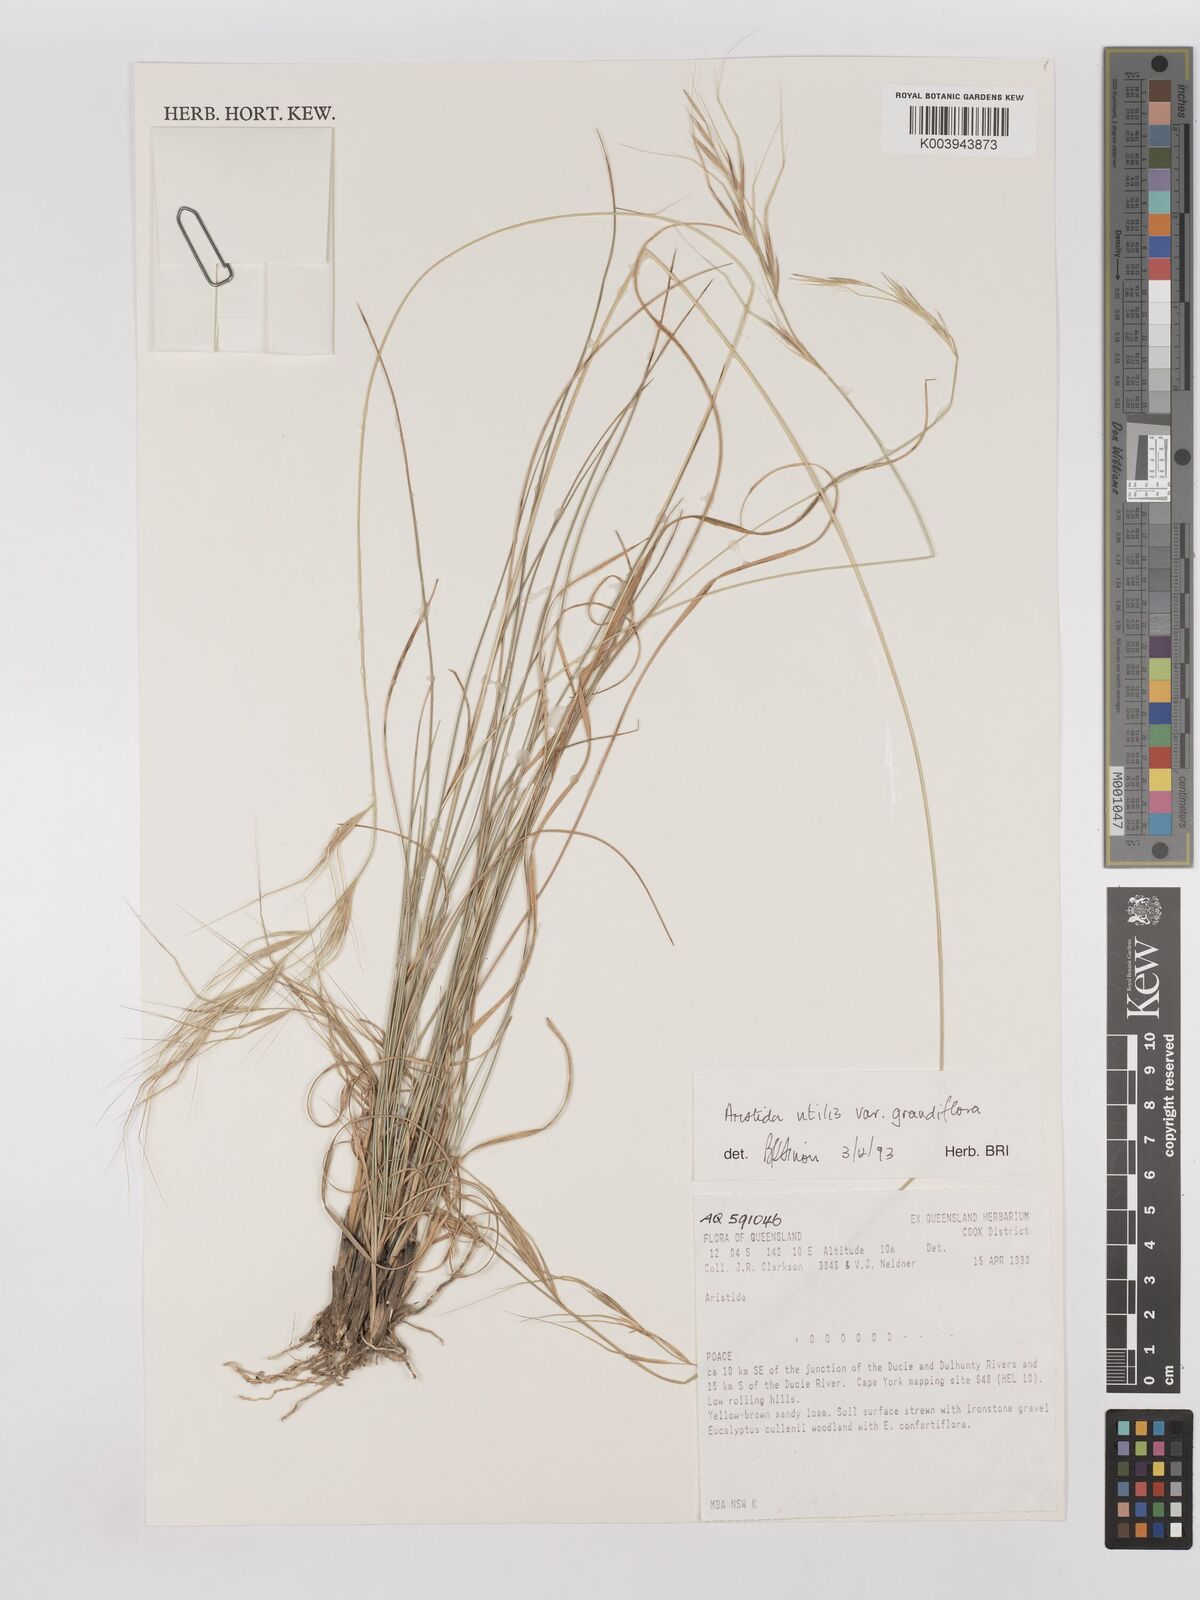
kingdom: Plantae
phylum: Tracheophyta
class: Liliopsida
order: Poales
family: Poaceae
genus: Aristida
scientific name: Aristida utilis
